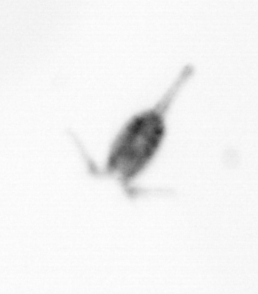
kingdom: Animalia
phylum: Arthropoda
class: Copepoda
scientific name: Copepoda
